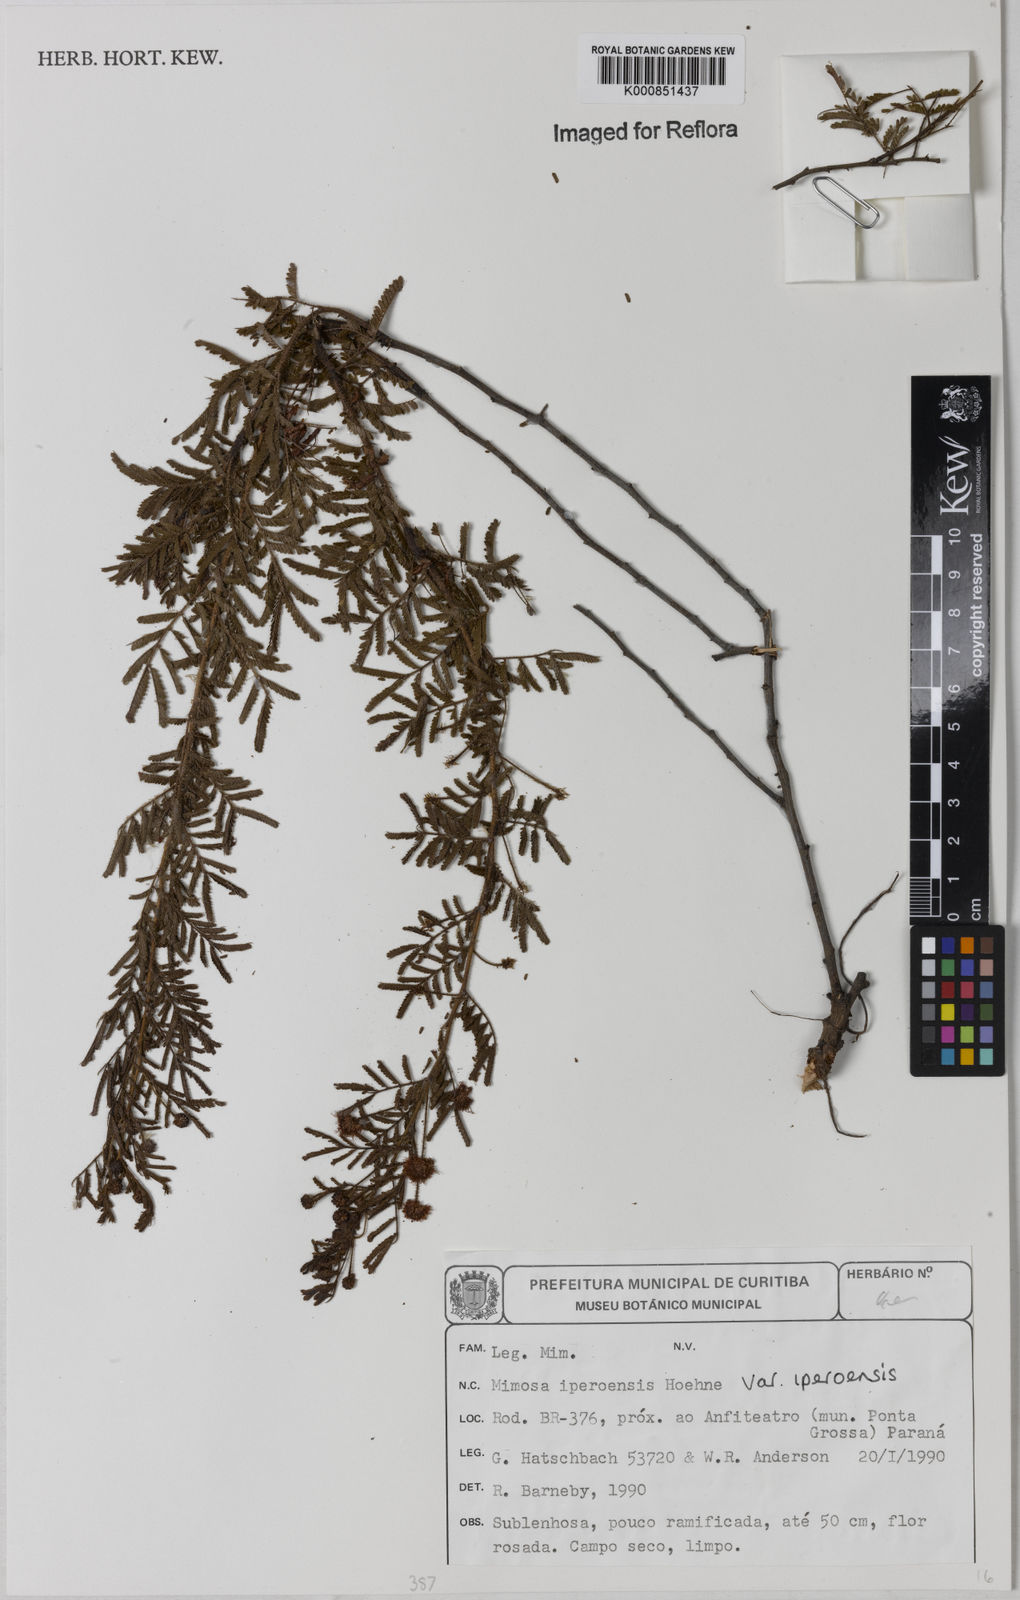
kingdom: Plantae
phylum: Tracheophyta
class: Magnoliopsida
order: Fabales
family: Fabaceae
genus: Mimosa
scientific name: Mimosa iperoensis
